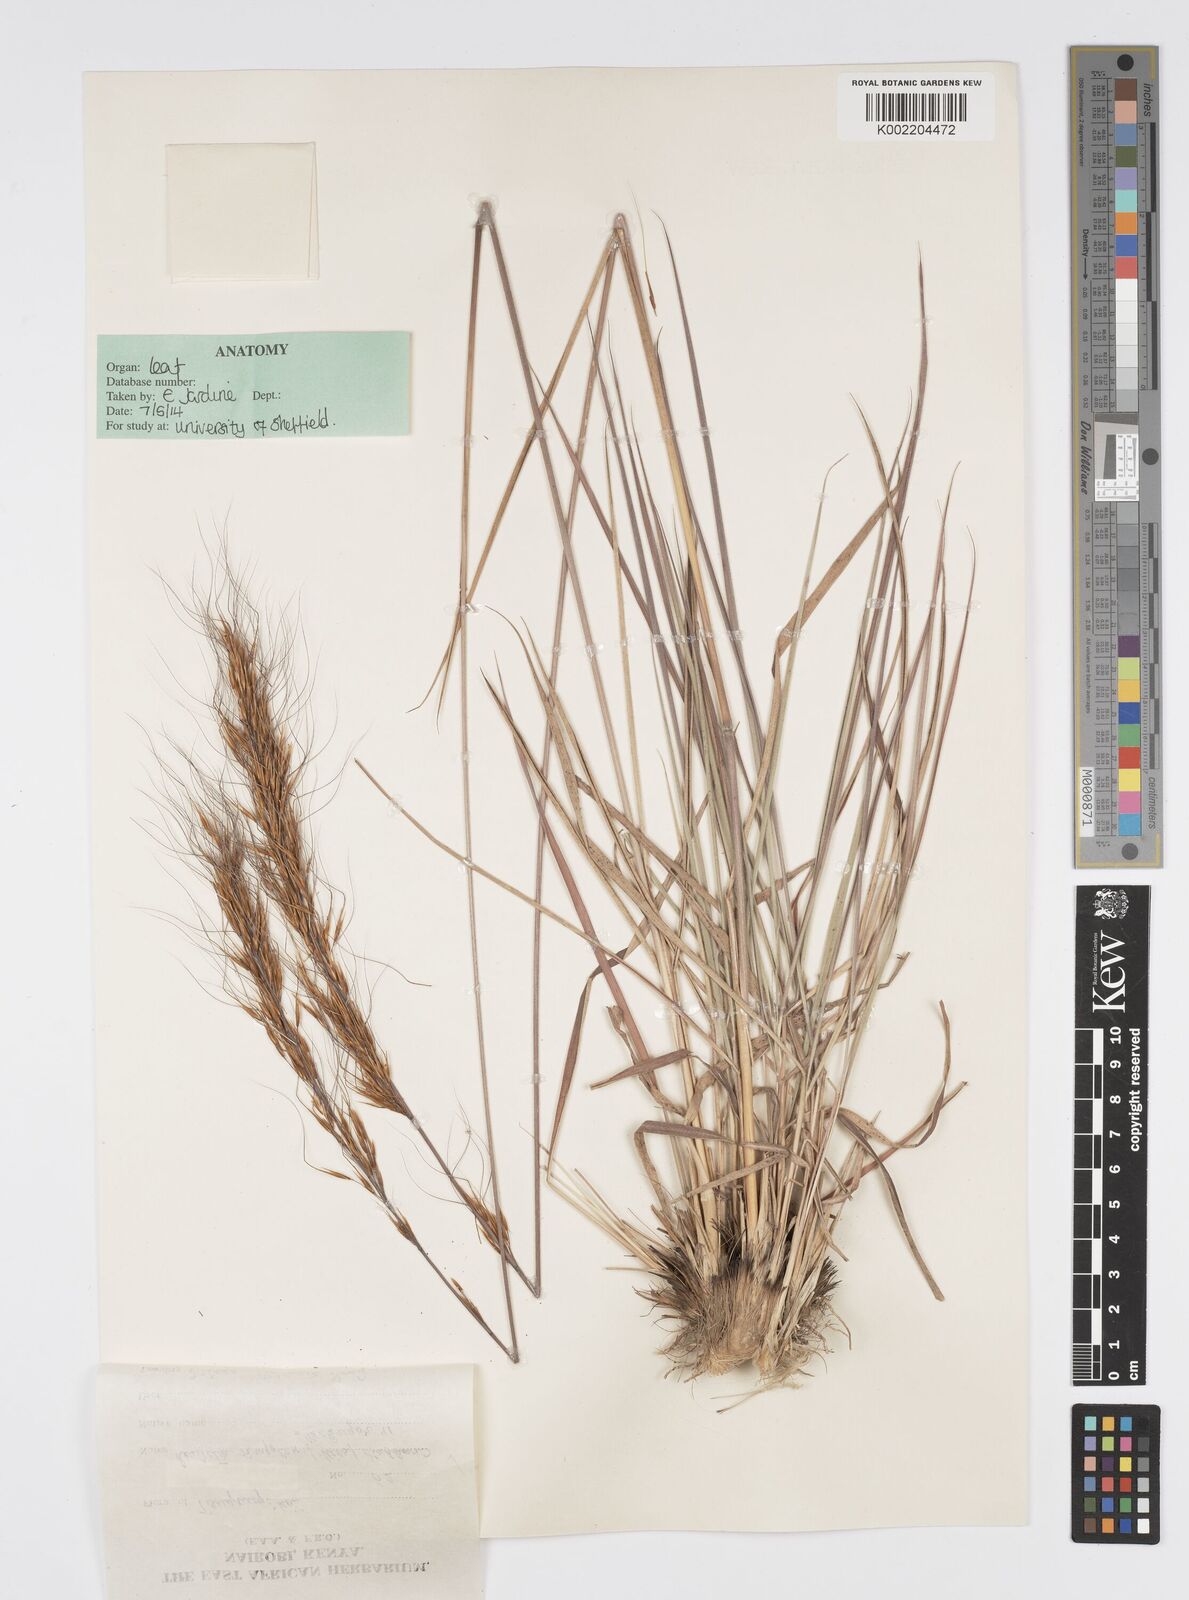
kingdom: Plantae
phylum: Tracheophyta
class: Liliopsida
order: Poales
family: Poaceae
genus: Loudetia
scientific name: Loudetia simplex
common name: Common russet grass
